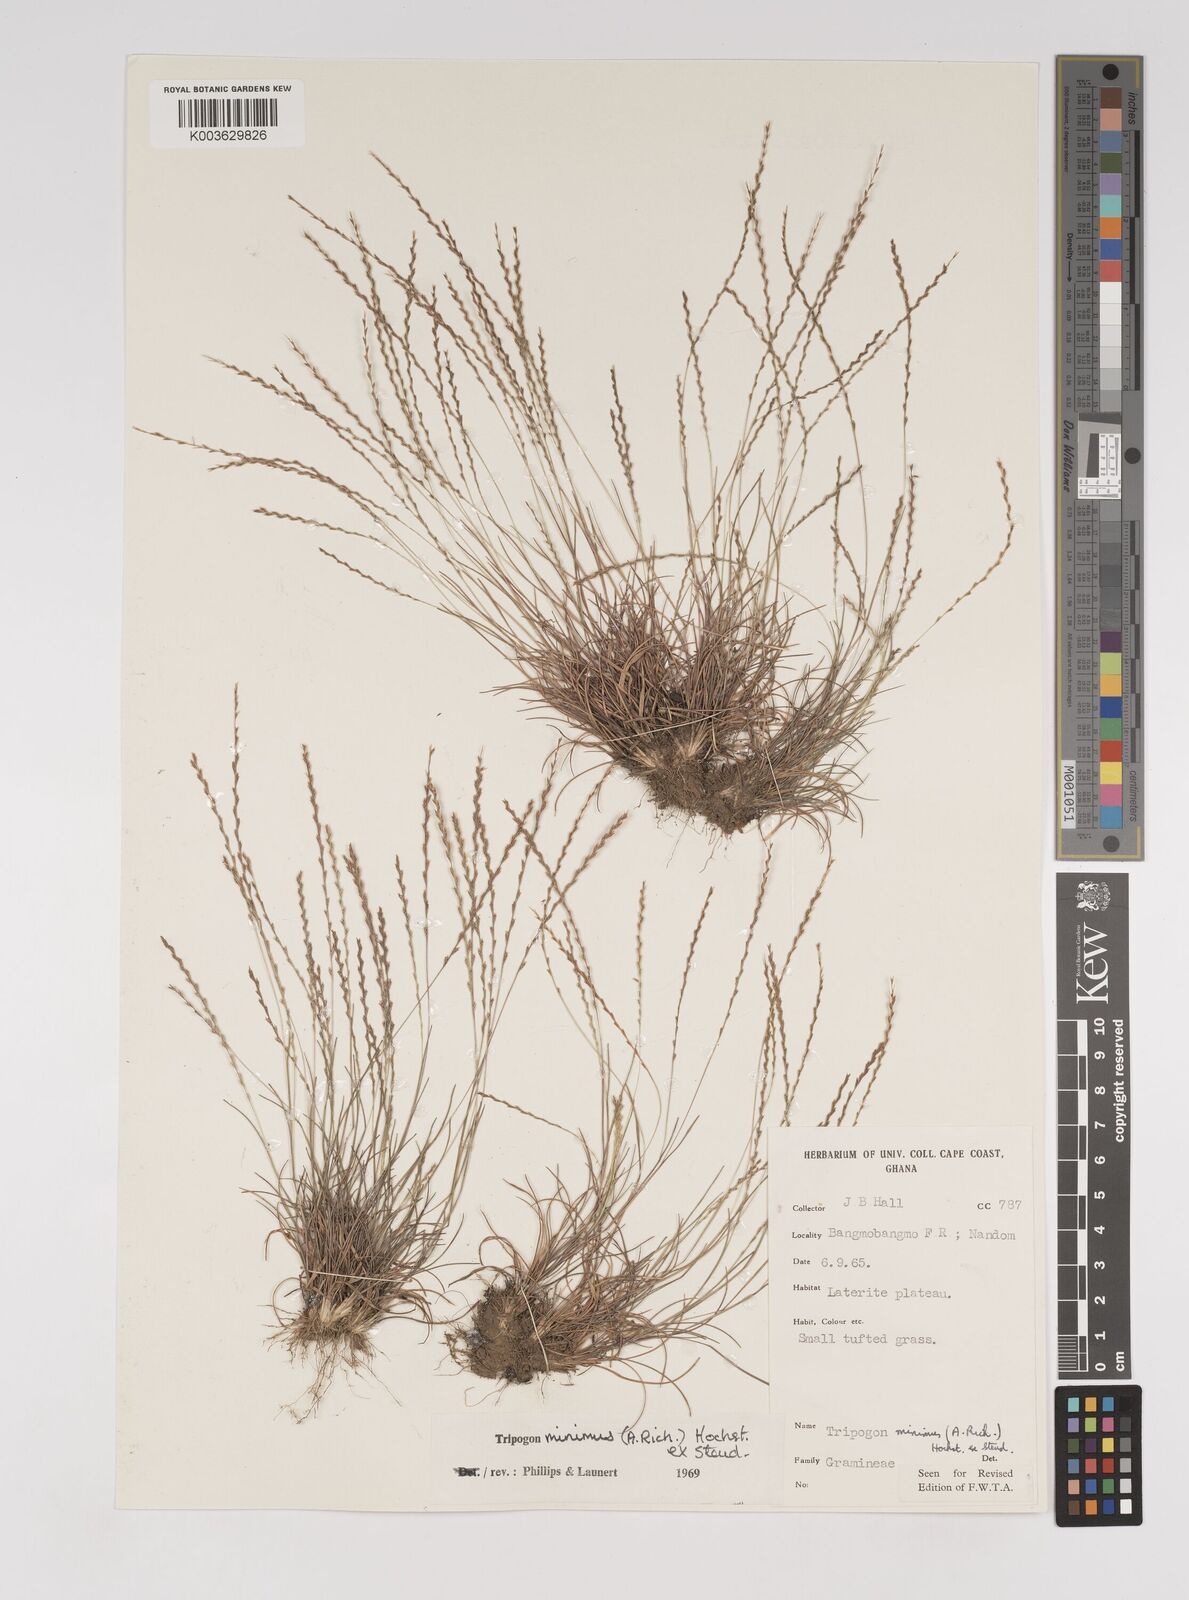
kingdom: Plantae
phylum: Tracheophyta
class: Liliopsida
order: Poales
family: Poaceae
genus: Tripogonella
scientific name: Tripogonella minima
